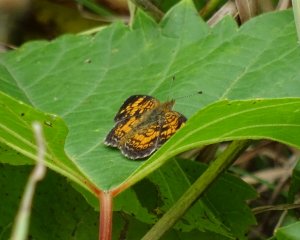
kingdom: Animalia
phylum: Arthropoda
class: Insecta
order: Lepidoptera
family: Nymphalidae
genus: Phyciodes
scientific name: Phyciodes tharos
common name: Pearl Crescent
